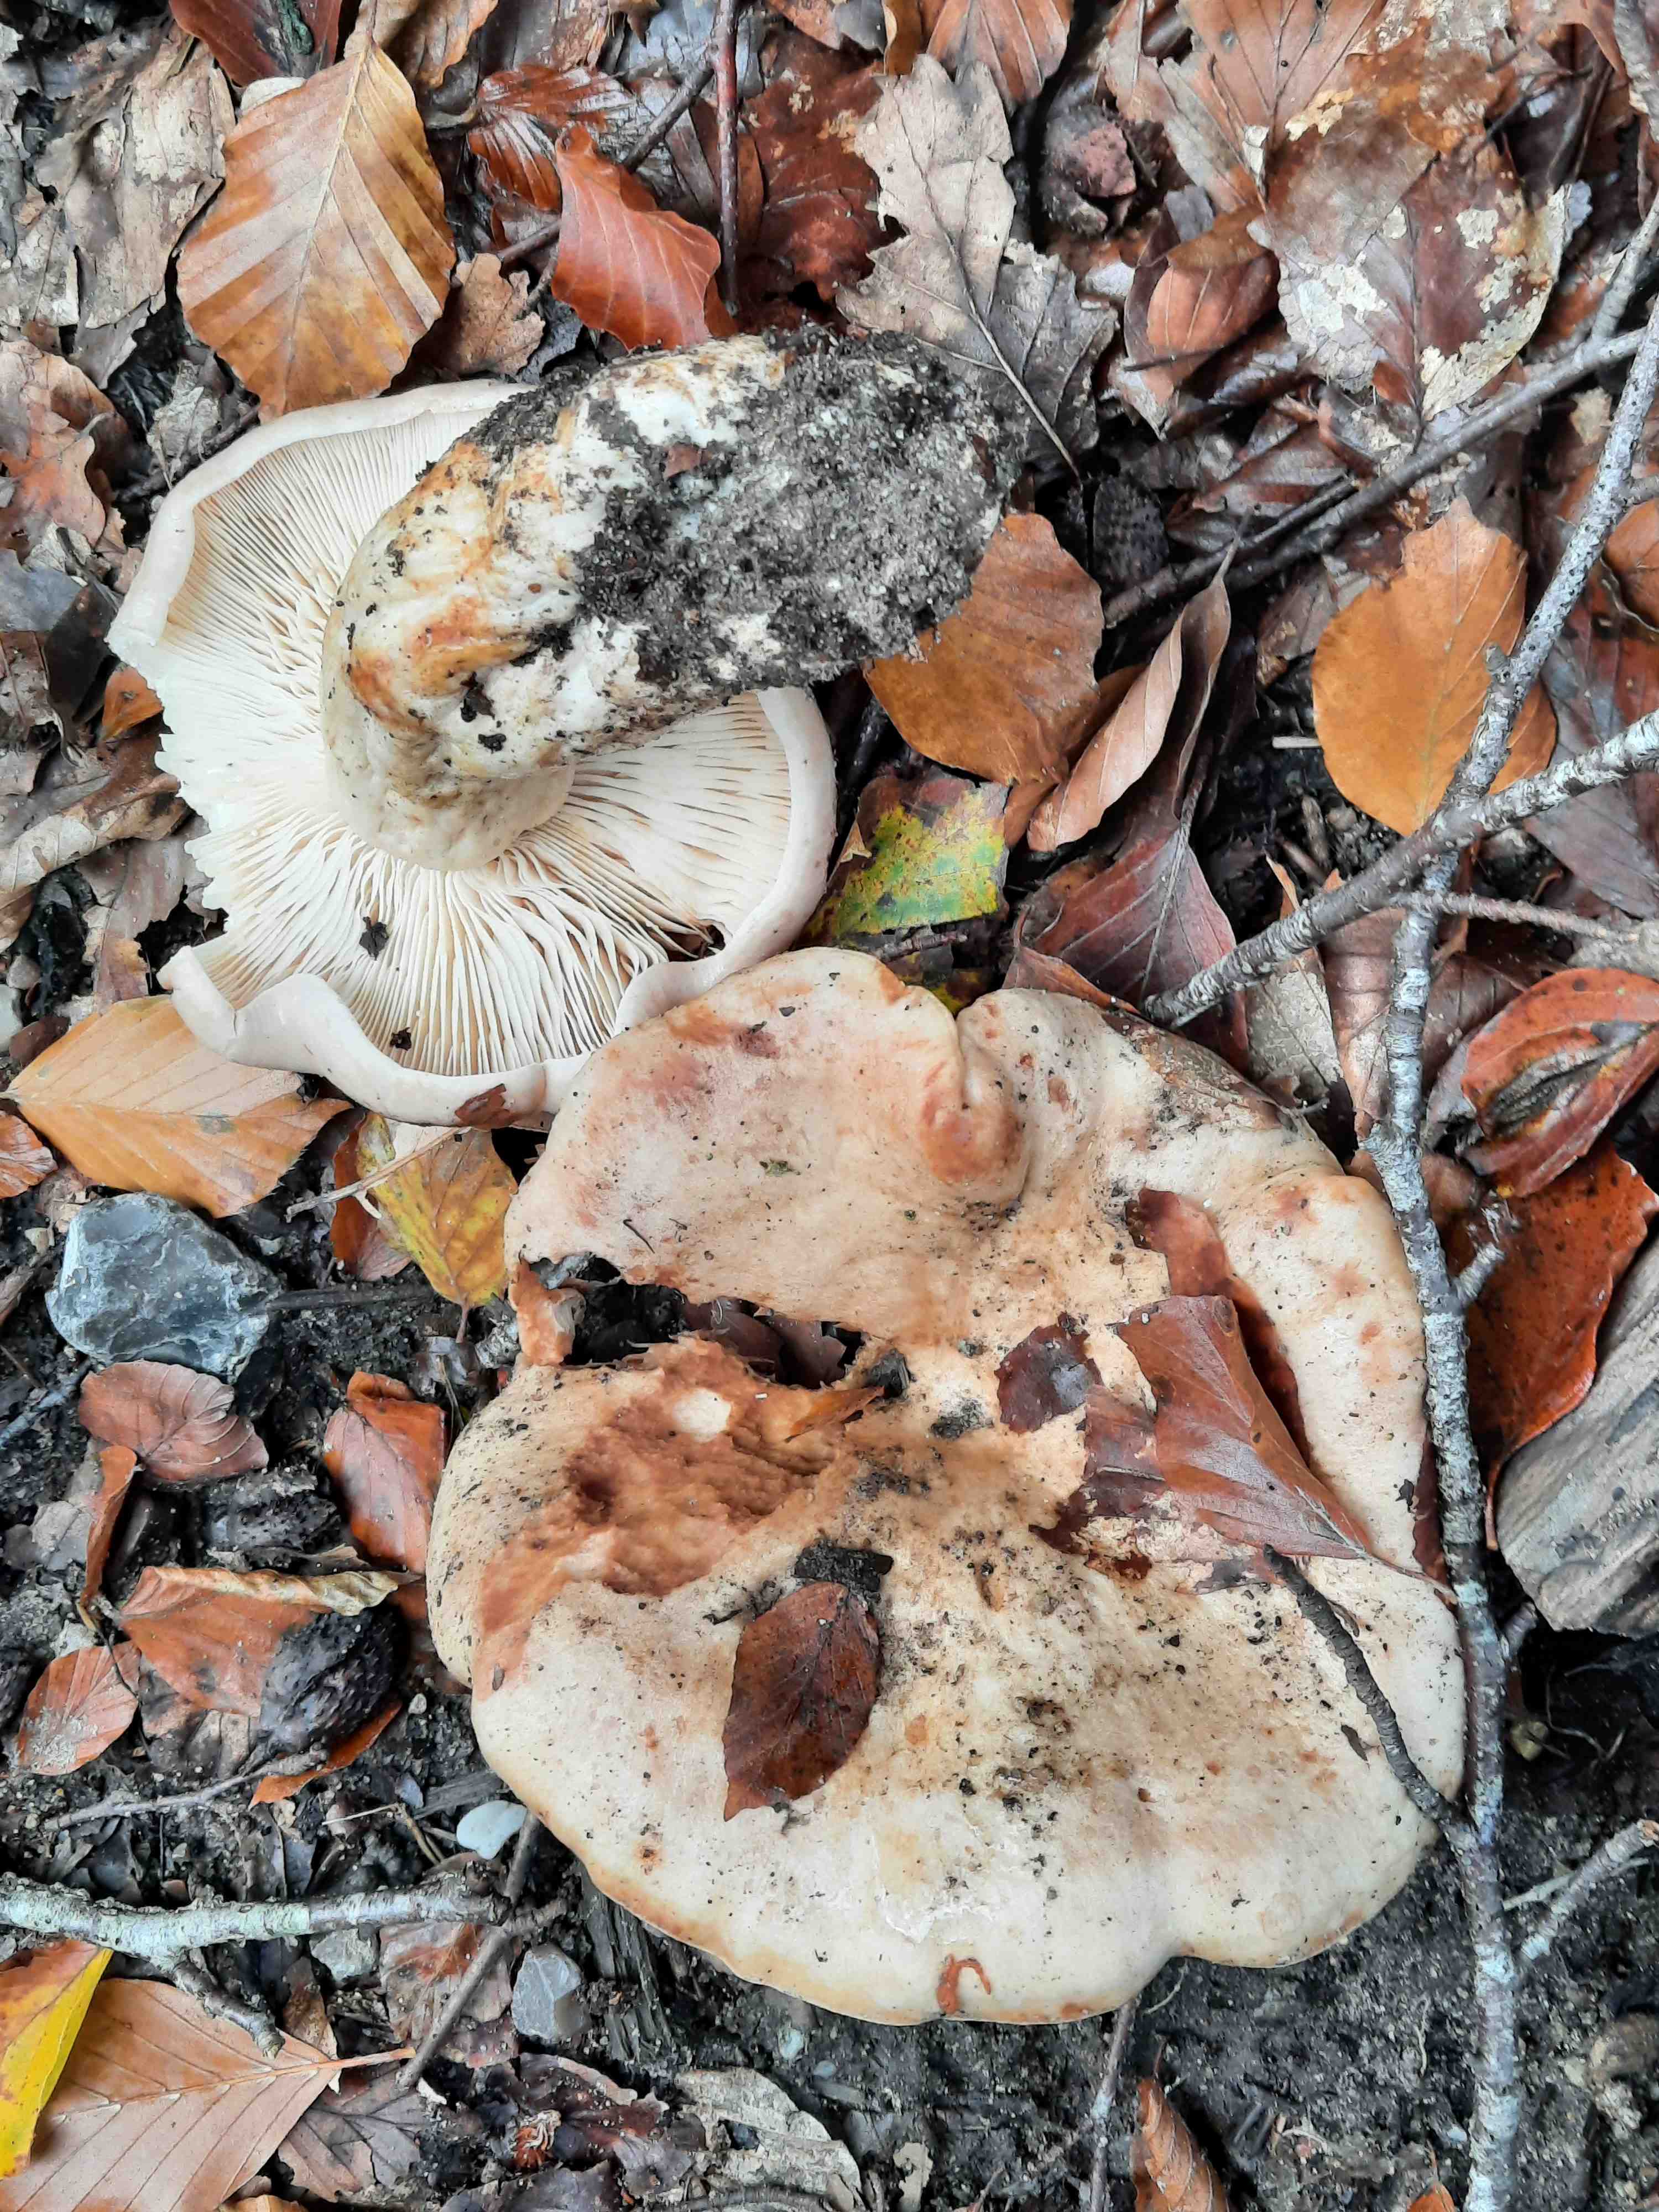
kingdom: Fungi
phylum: Basidiomycota
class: Agaricomycetes
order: Russulales
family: Russulaceae
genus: Lactarius
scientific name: Lactarius pallidus
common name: bleg mælkehat
